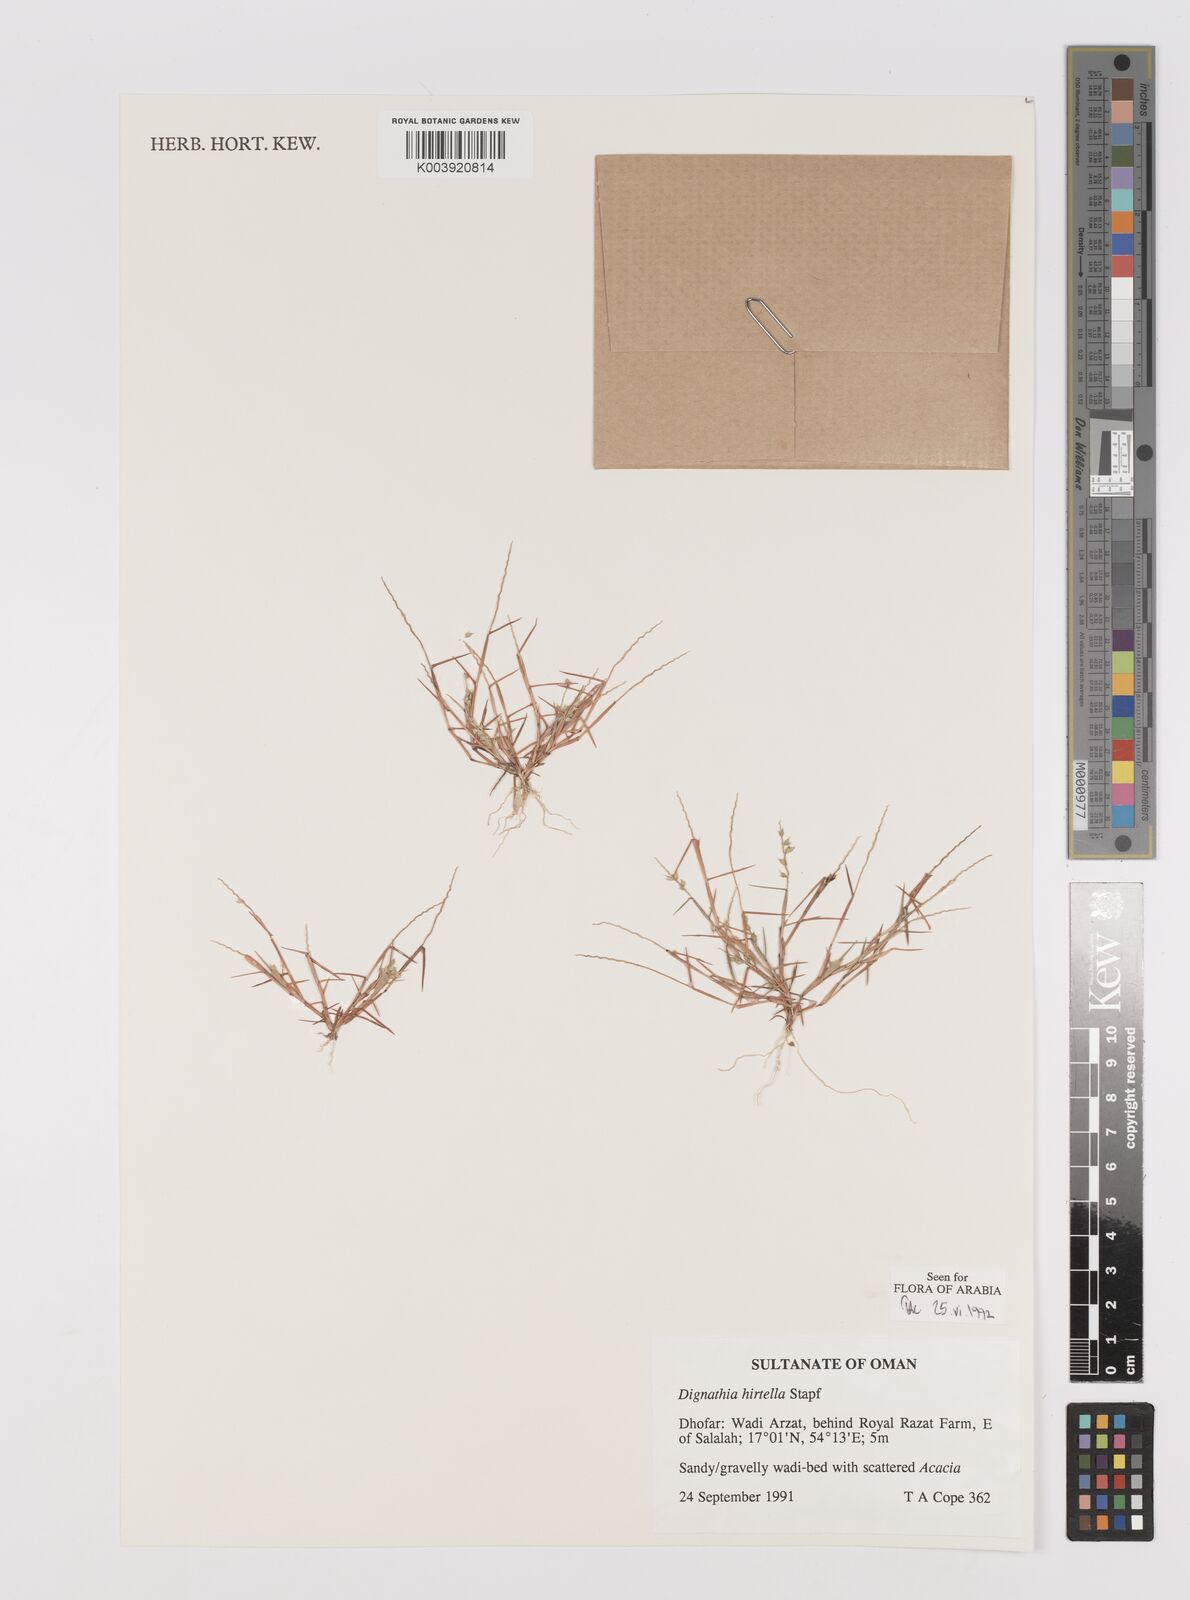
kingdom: Plantae
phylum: Tracheophyta
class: Liliopsida
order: Poales
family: Poaceae
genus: Dignathia
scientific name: Dignathia hirtella
